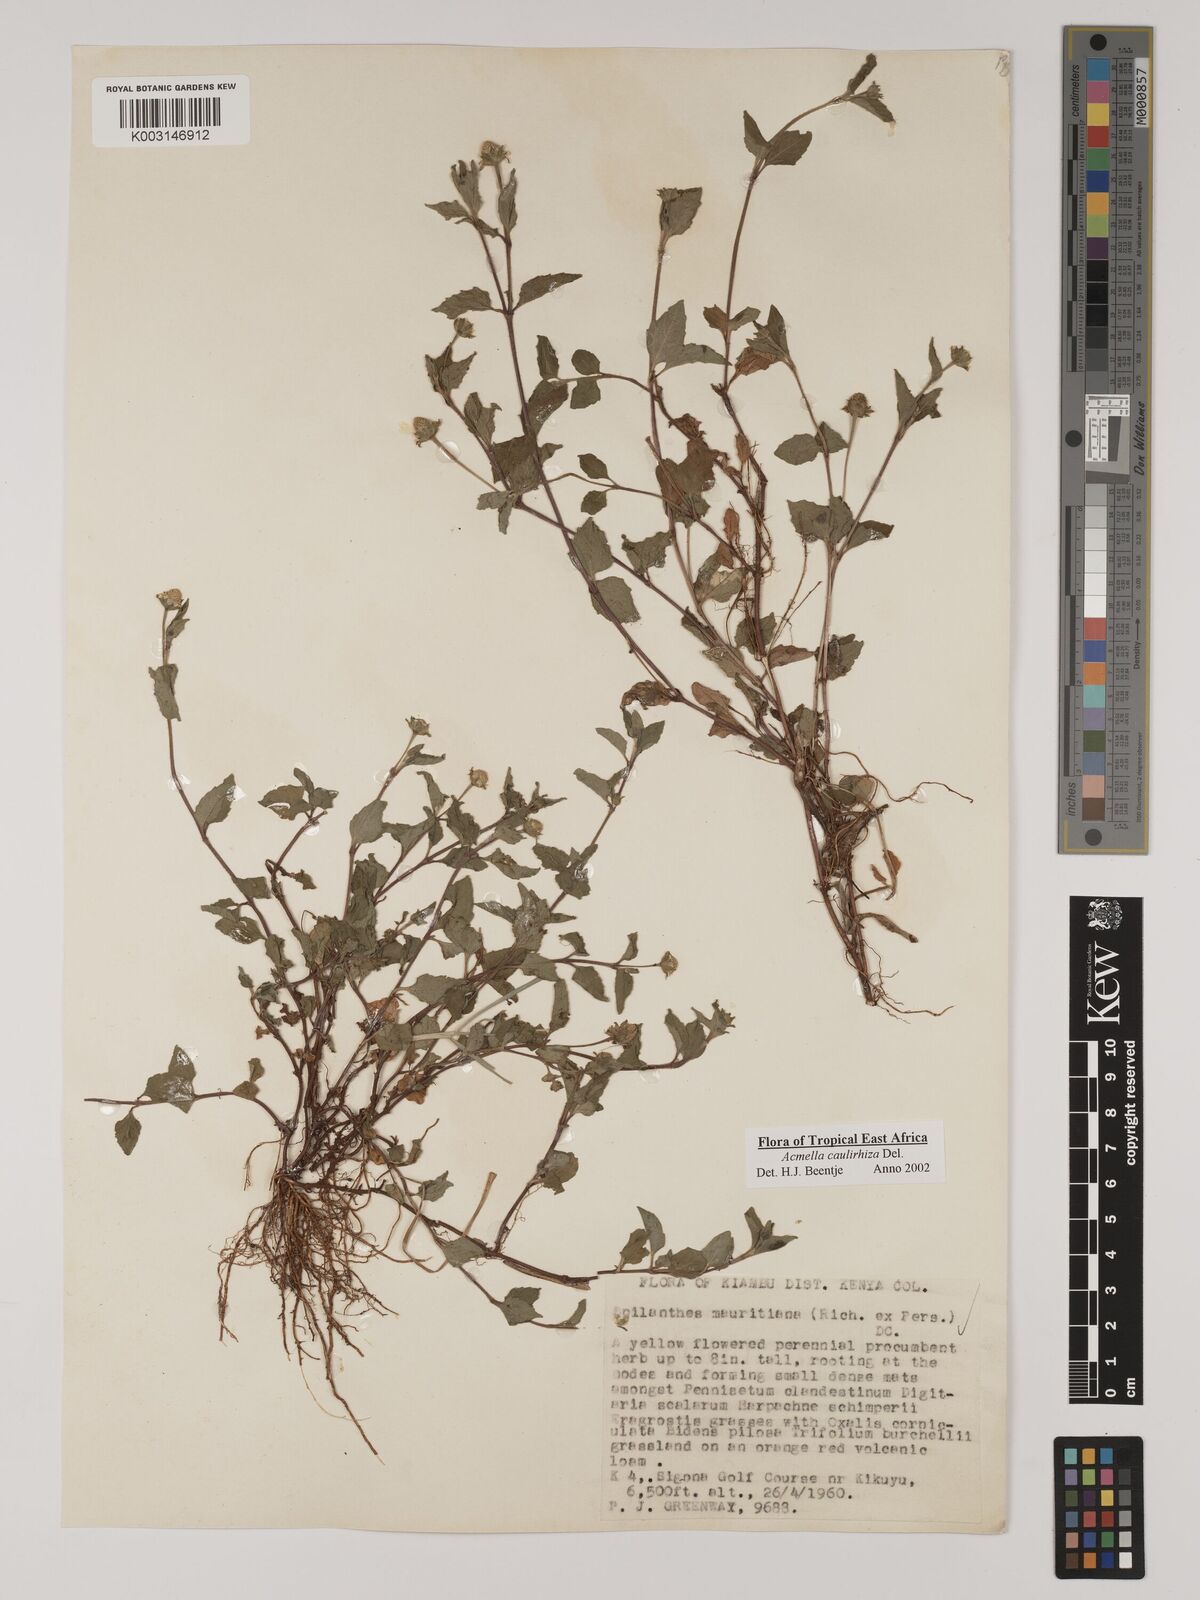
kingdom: Plantae
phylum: Tracheophyta
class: Magnoliopsida
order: Asterales
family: Asteraceae
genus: Acmella
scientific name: Acmella caulirhiza
